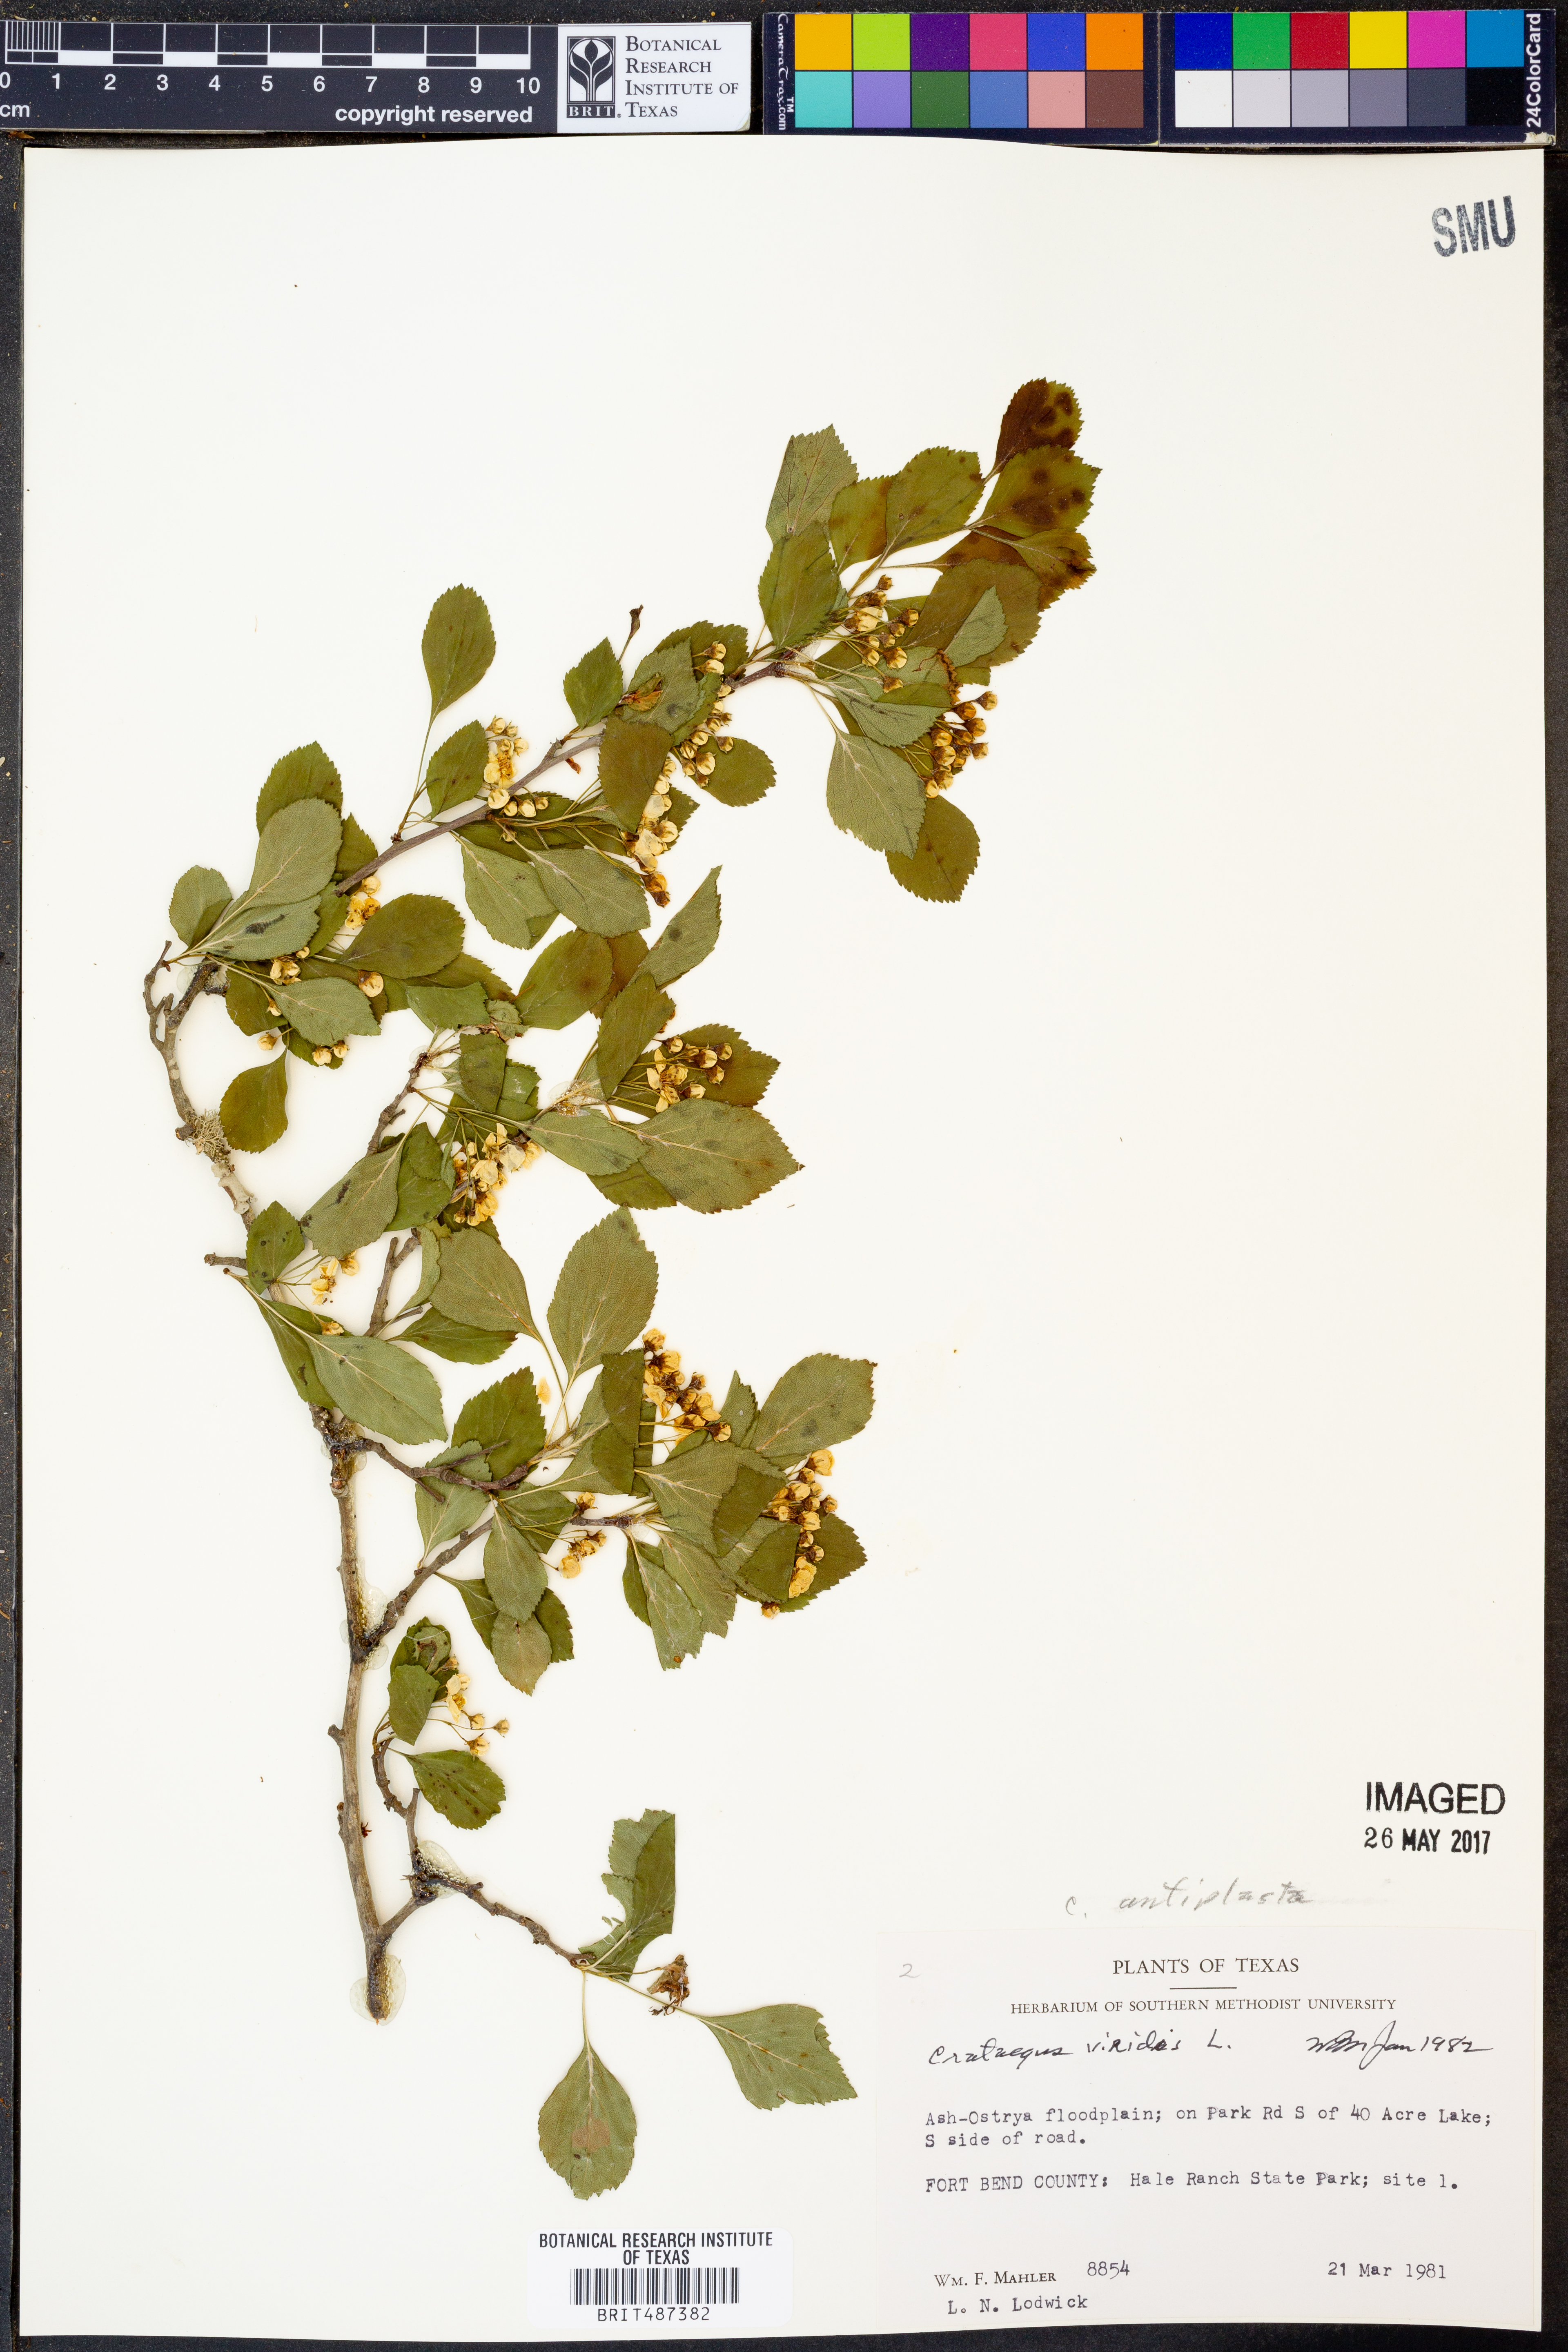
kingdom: Plantae
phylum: Tracheophyta
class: Magnoliopsida
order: Rosales
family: Rosaceae
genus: Crataegus
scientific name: Crataegus viridis
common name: Southernthorn
